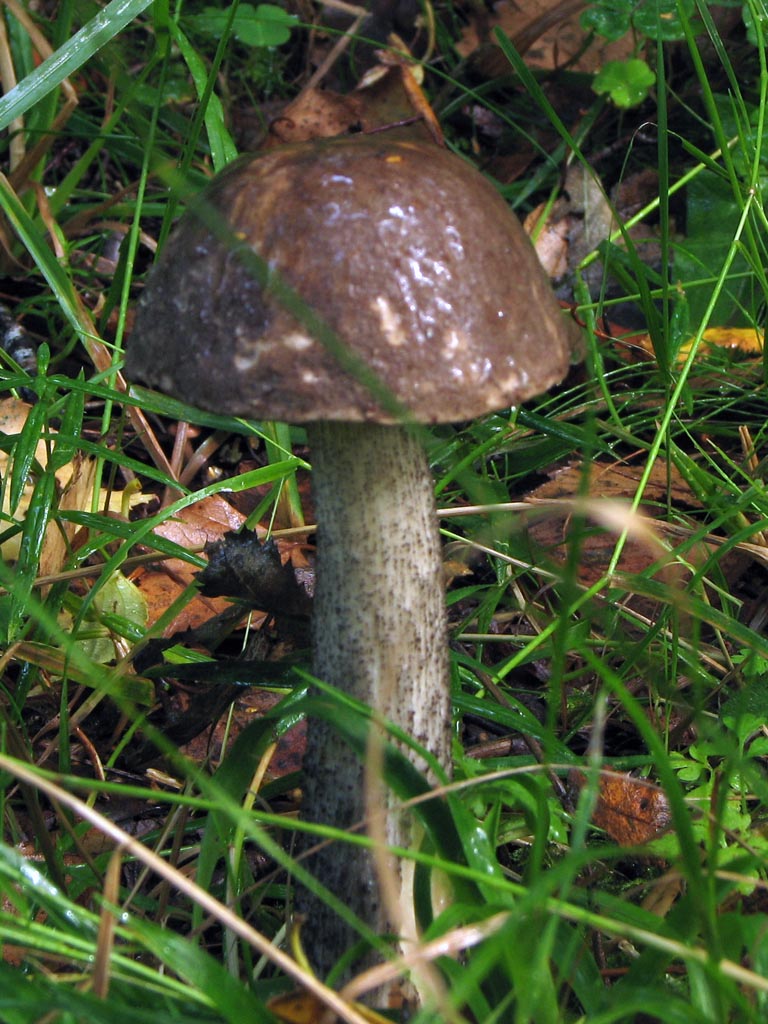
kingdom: Fungi
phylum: Basidiomycota
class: Agaricomycetes
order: Boletales
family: Boletaceae
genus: Leccinum
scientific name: Leccinum scabrum
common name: brun skælrørhat
